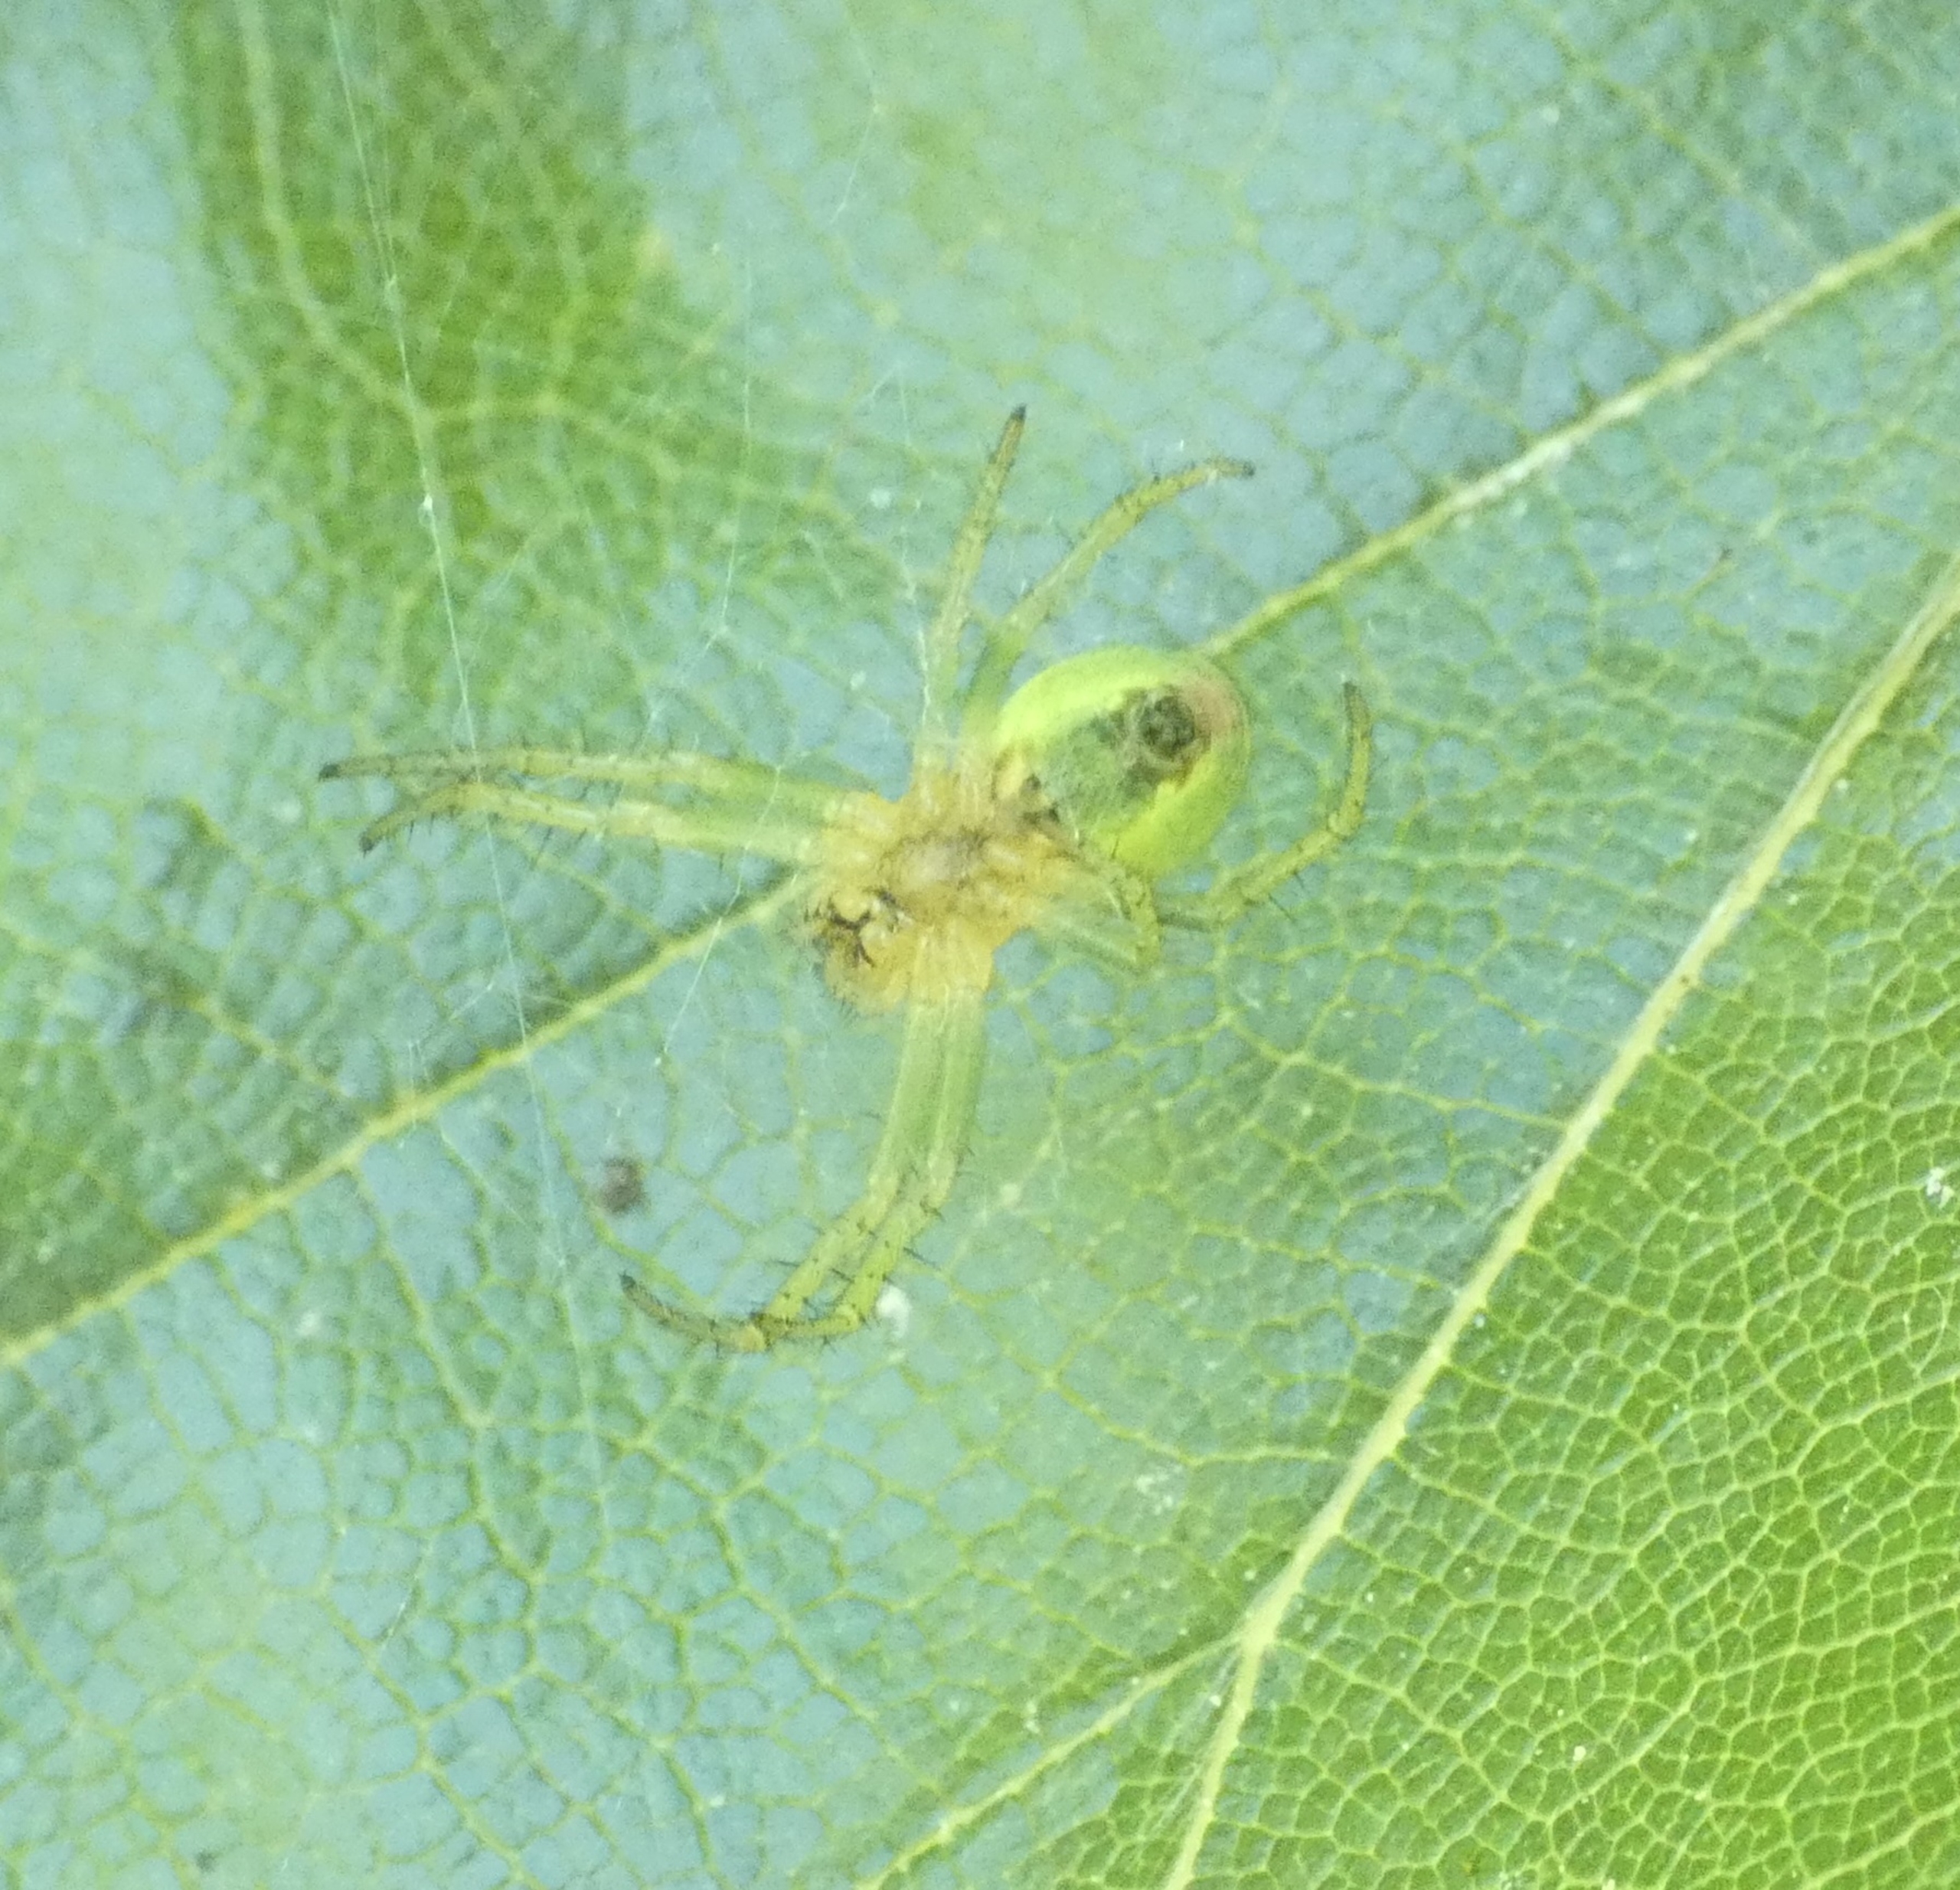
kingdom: Animalia
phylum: Arthropoda
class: Arachnida
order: Araneae
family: Araneidae
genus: Araniella
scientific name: Araniella
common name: Agurkeedderkopslægten
